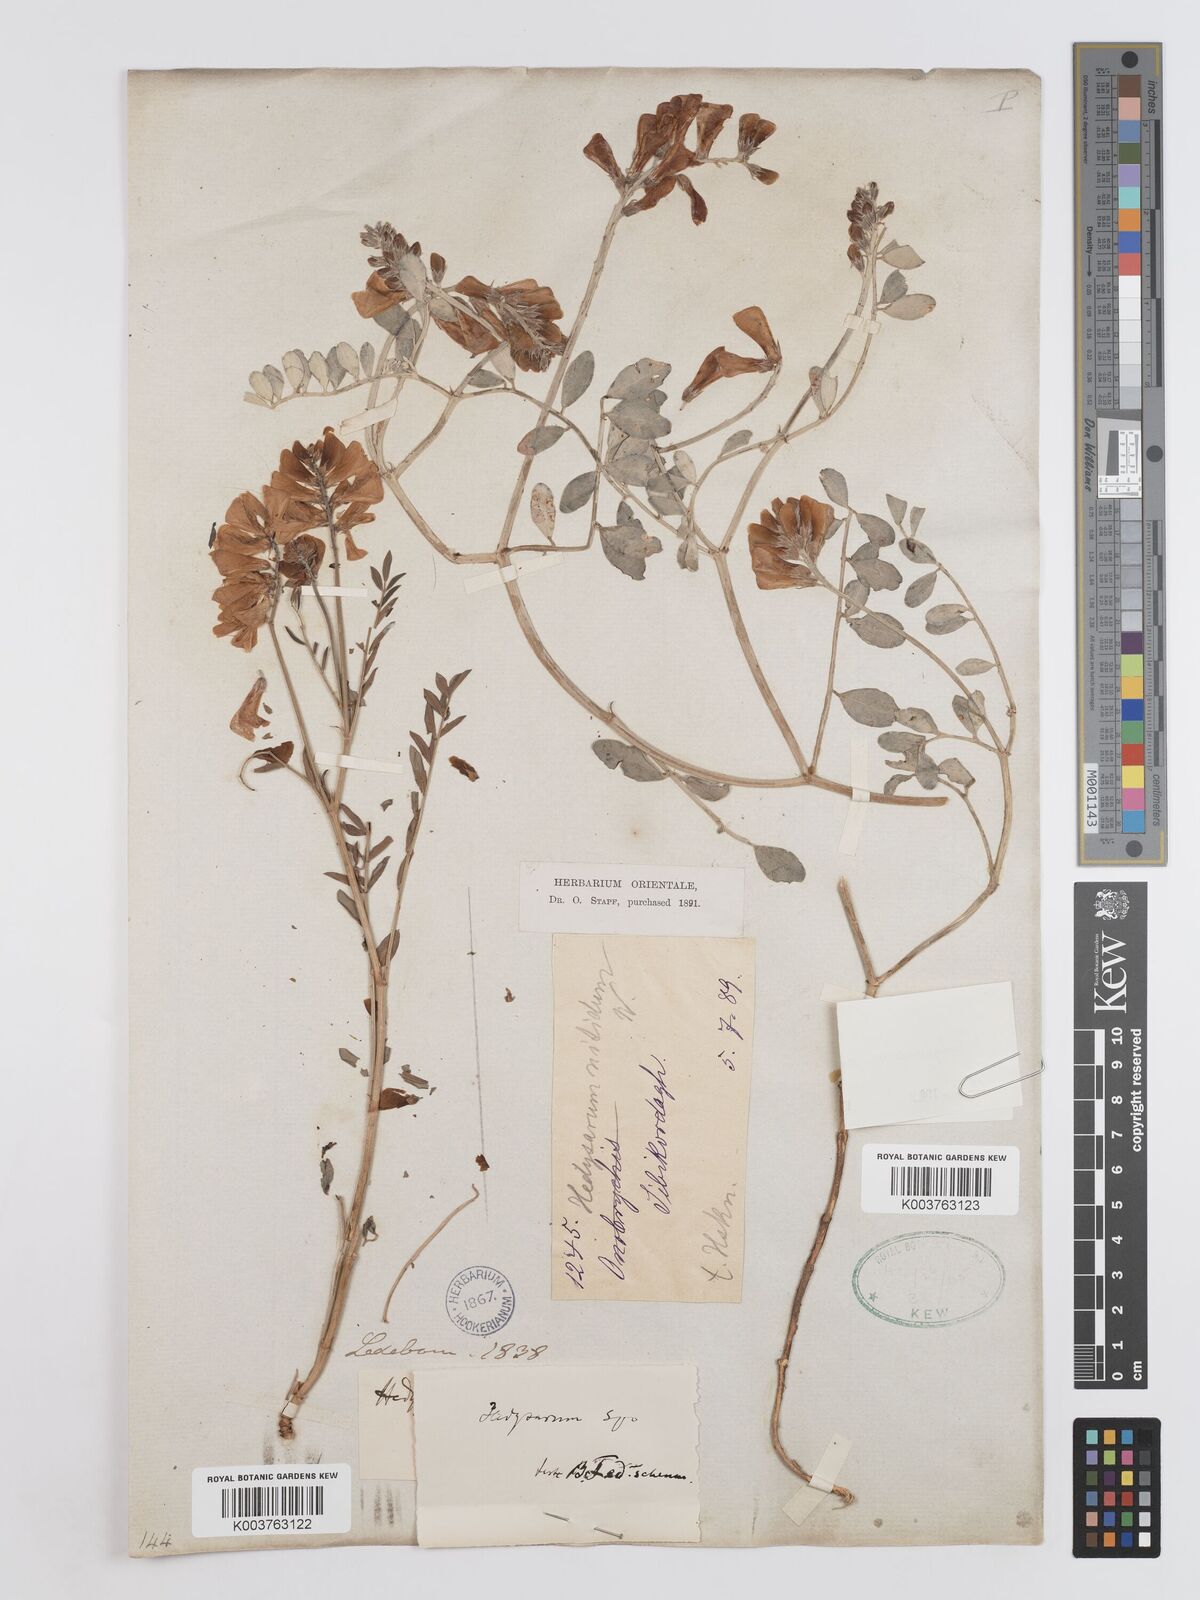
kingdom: Plantae
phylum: Tracheophyta
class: Magnoliopsida
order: Fabales
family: Fabaceae
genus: Hedysarum
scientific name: Hedysarum nitidum
